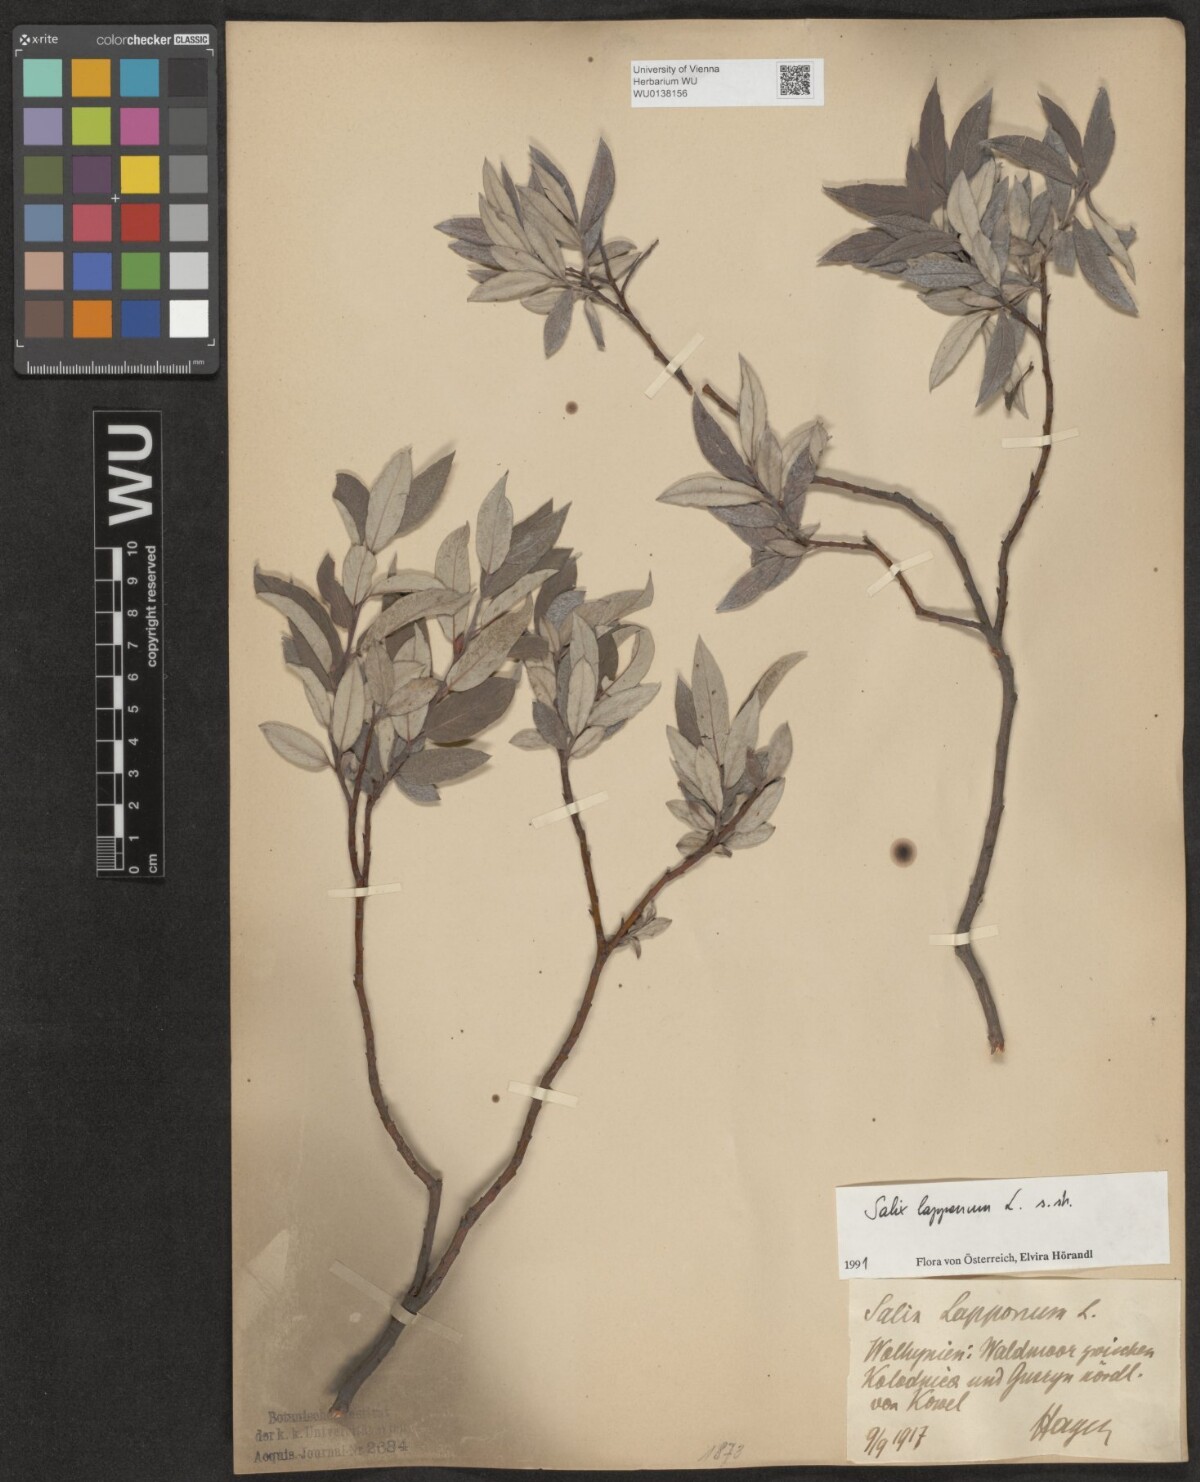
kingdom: Plantae
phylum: Tracheophyta
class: Magnoliopsida
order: Malpighiales
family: Salicaceae
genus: Salix
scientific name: Salix lapponum
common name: Downy willow
